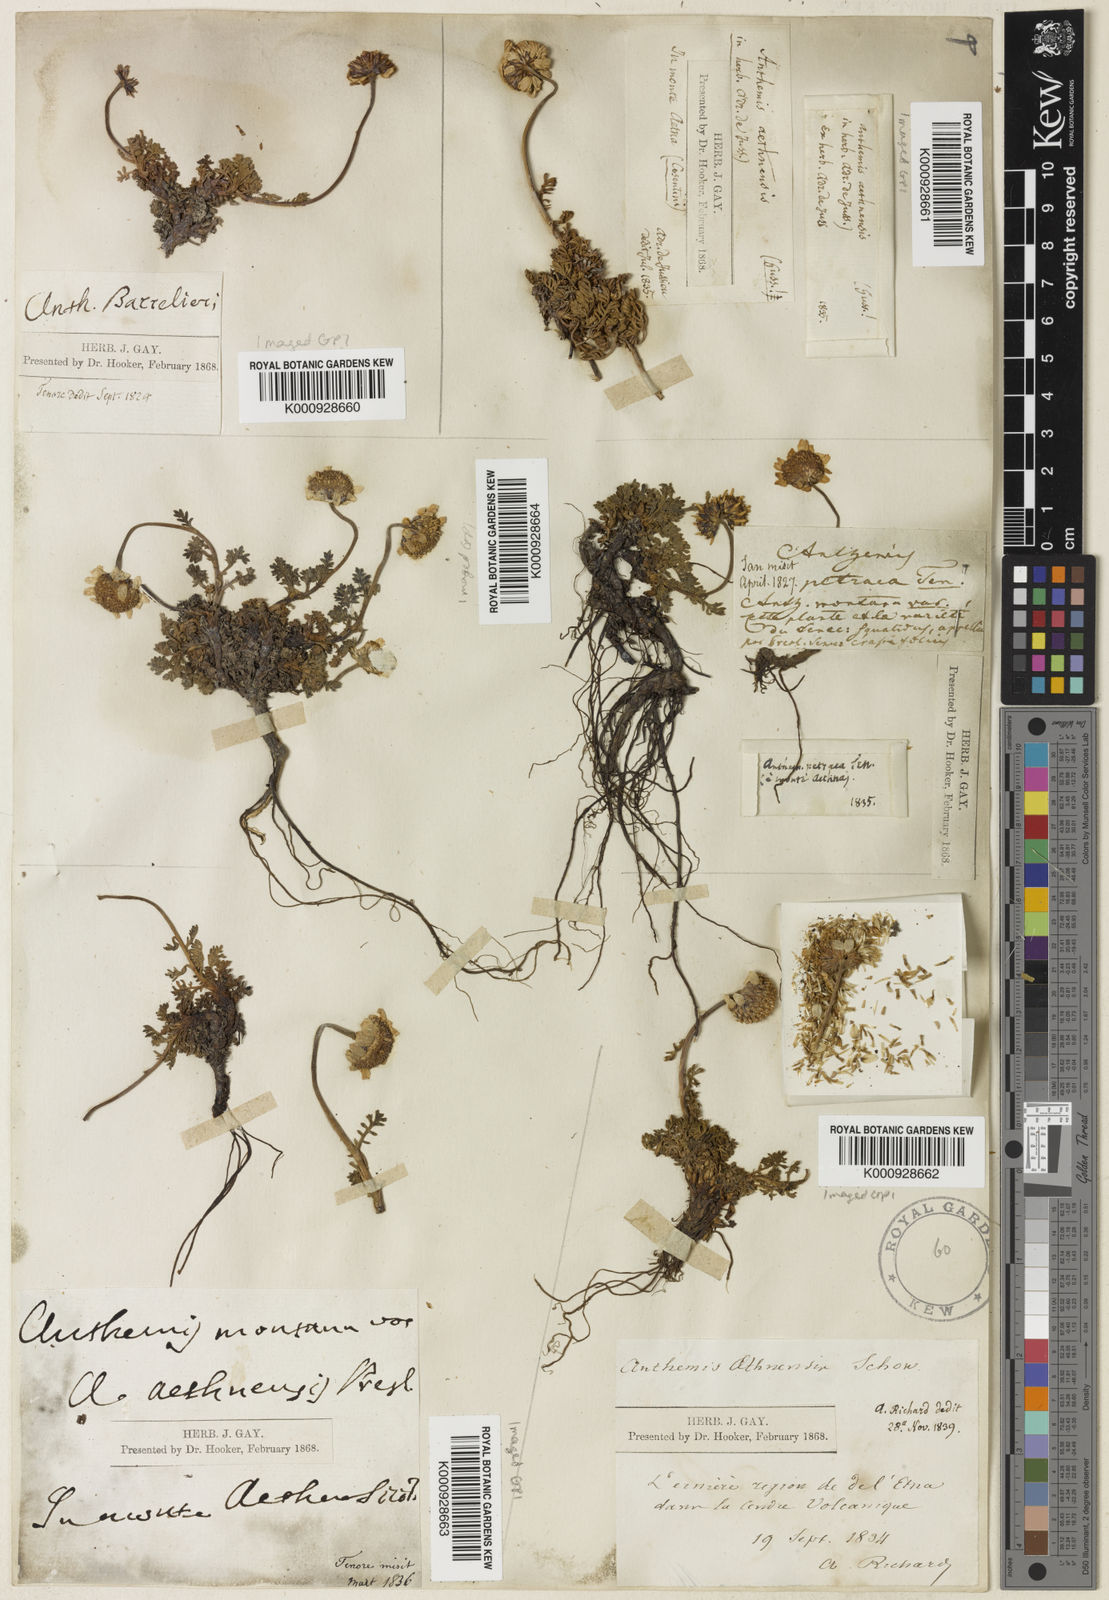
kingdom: Plantae
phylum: Tracheophyta
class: Magnoliopsida
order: Asterales
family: Asteraceae
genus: Anthemis
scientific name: Anthemis aetnensis
